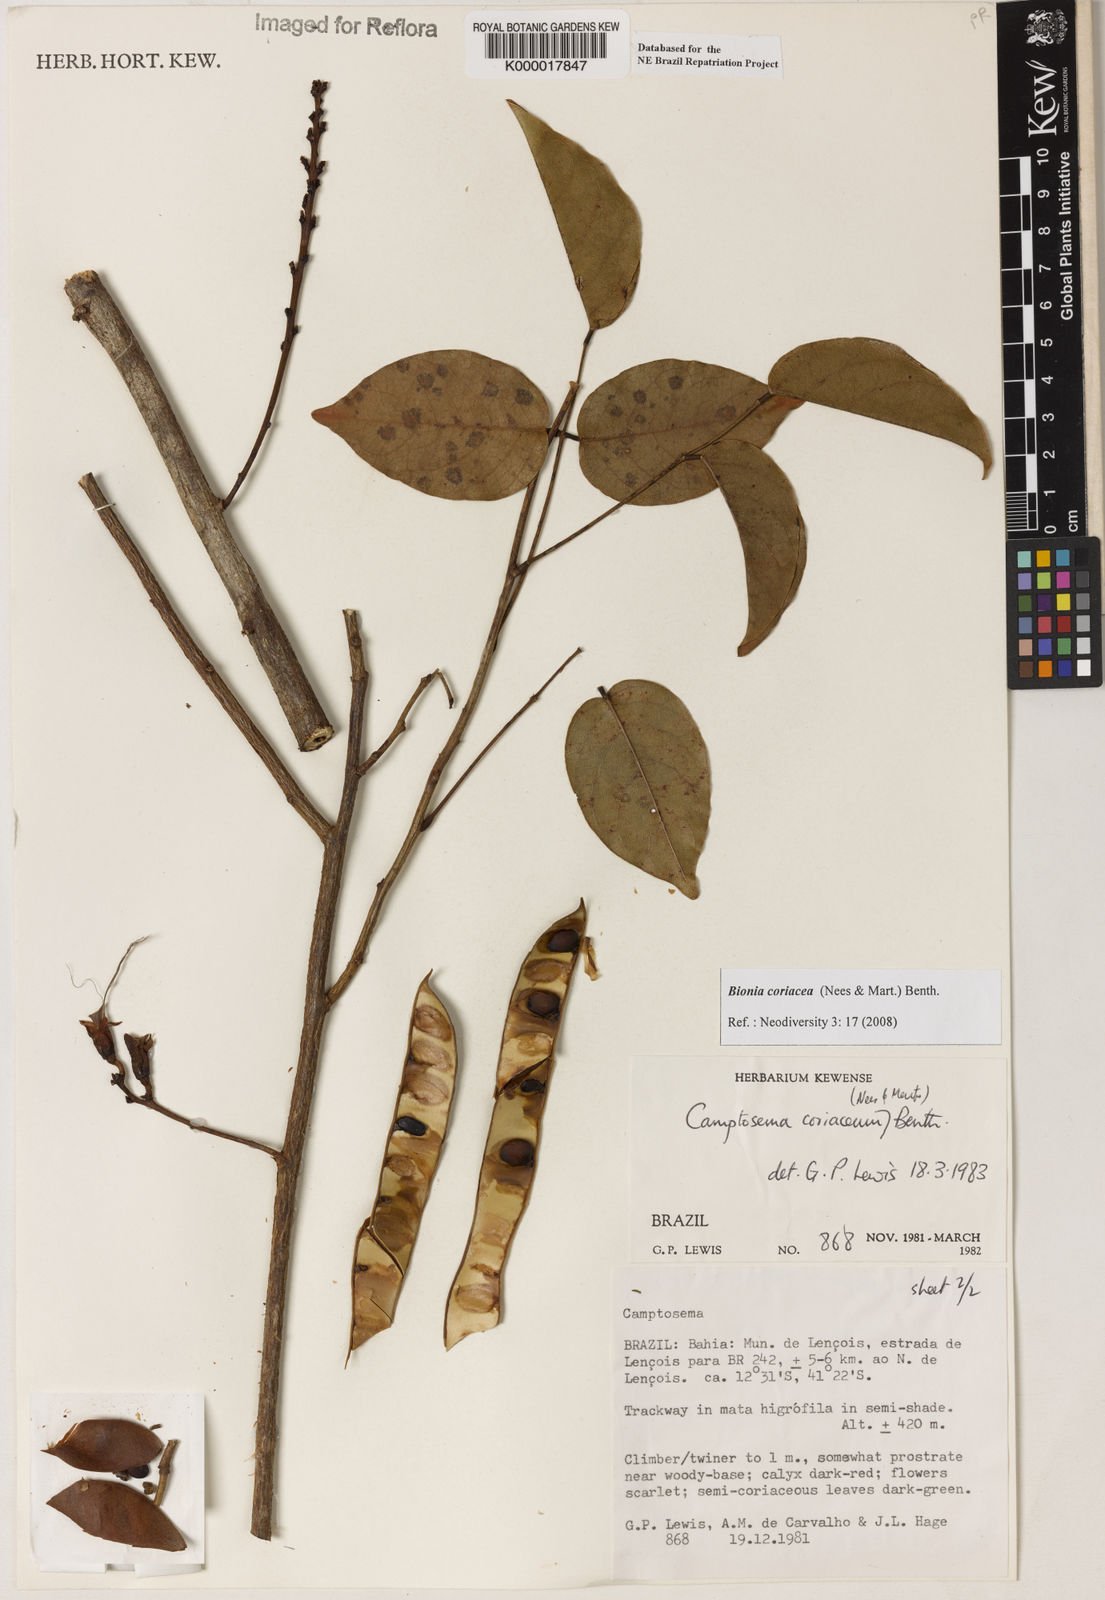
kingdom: Plantae
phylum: Tracheophyta
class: Magnoliopsida
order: Fabales
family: Fabaceae
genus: Camptosema
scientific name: Camptosema coriaceum
